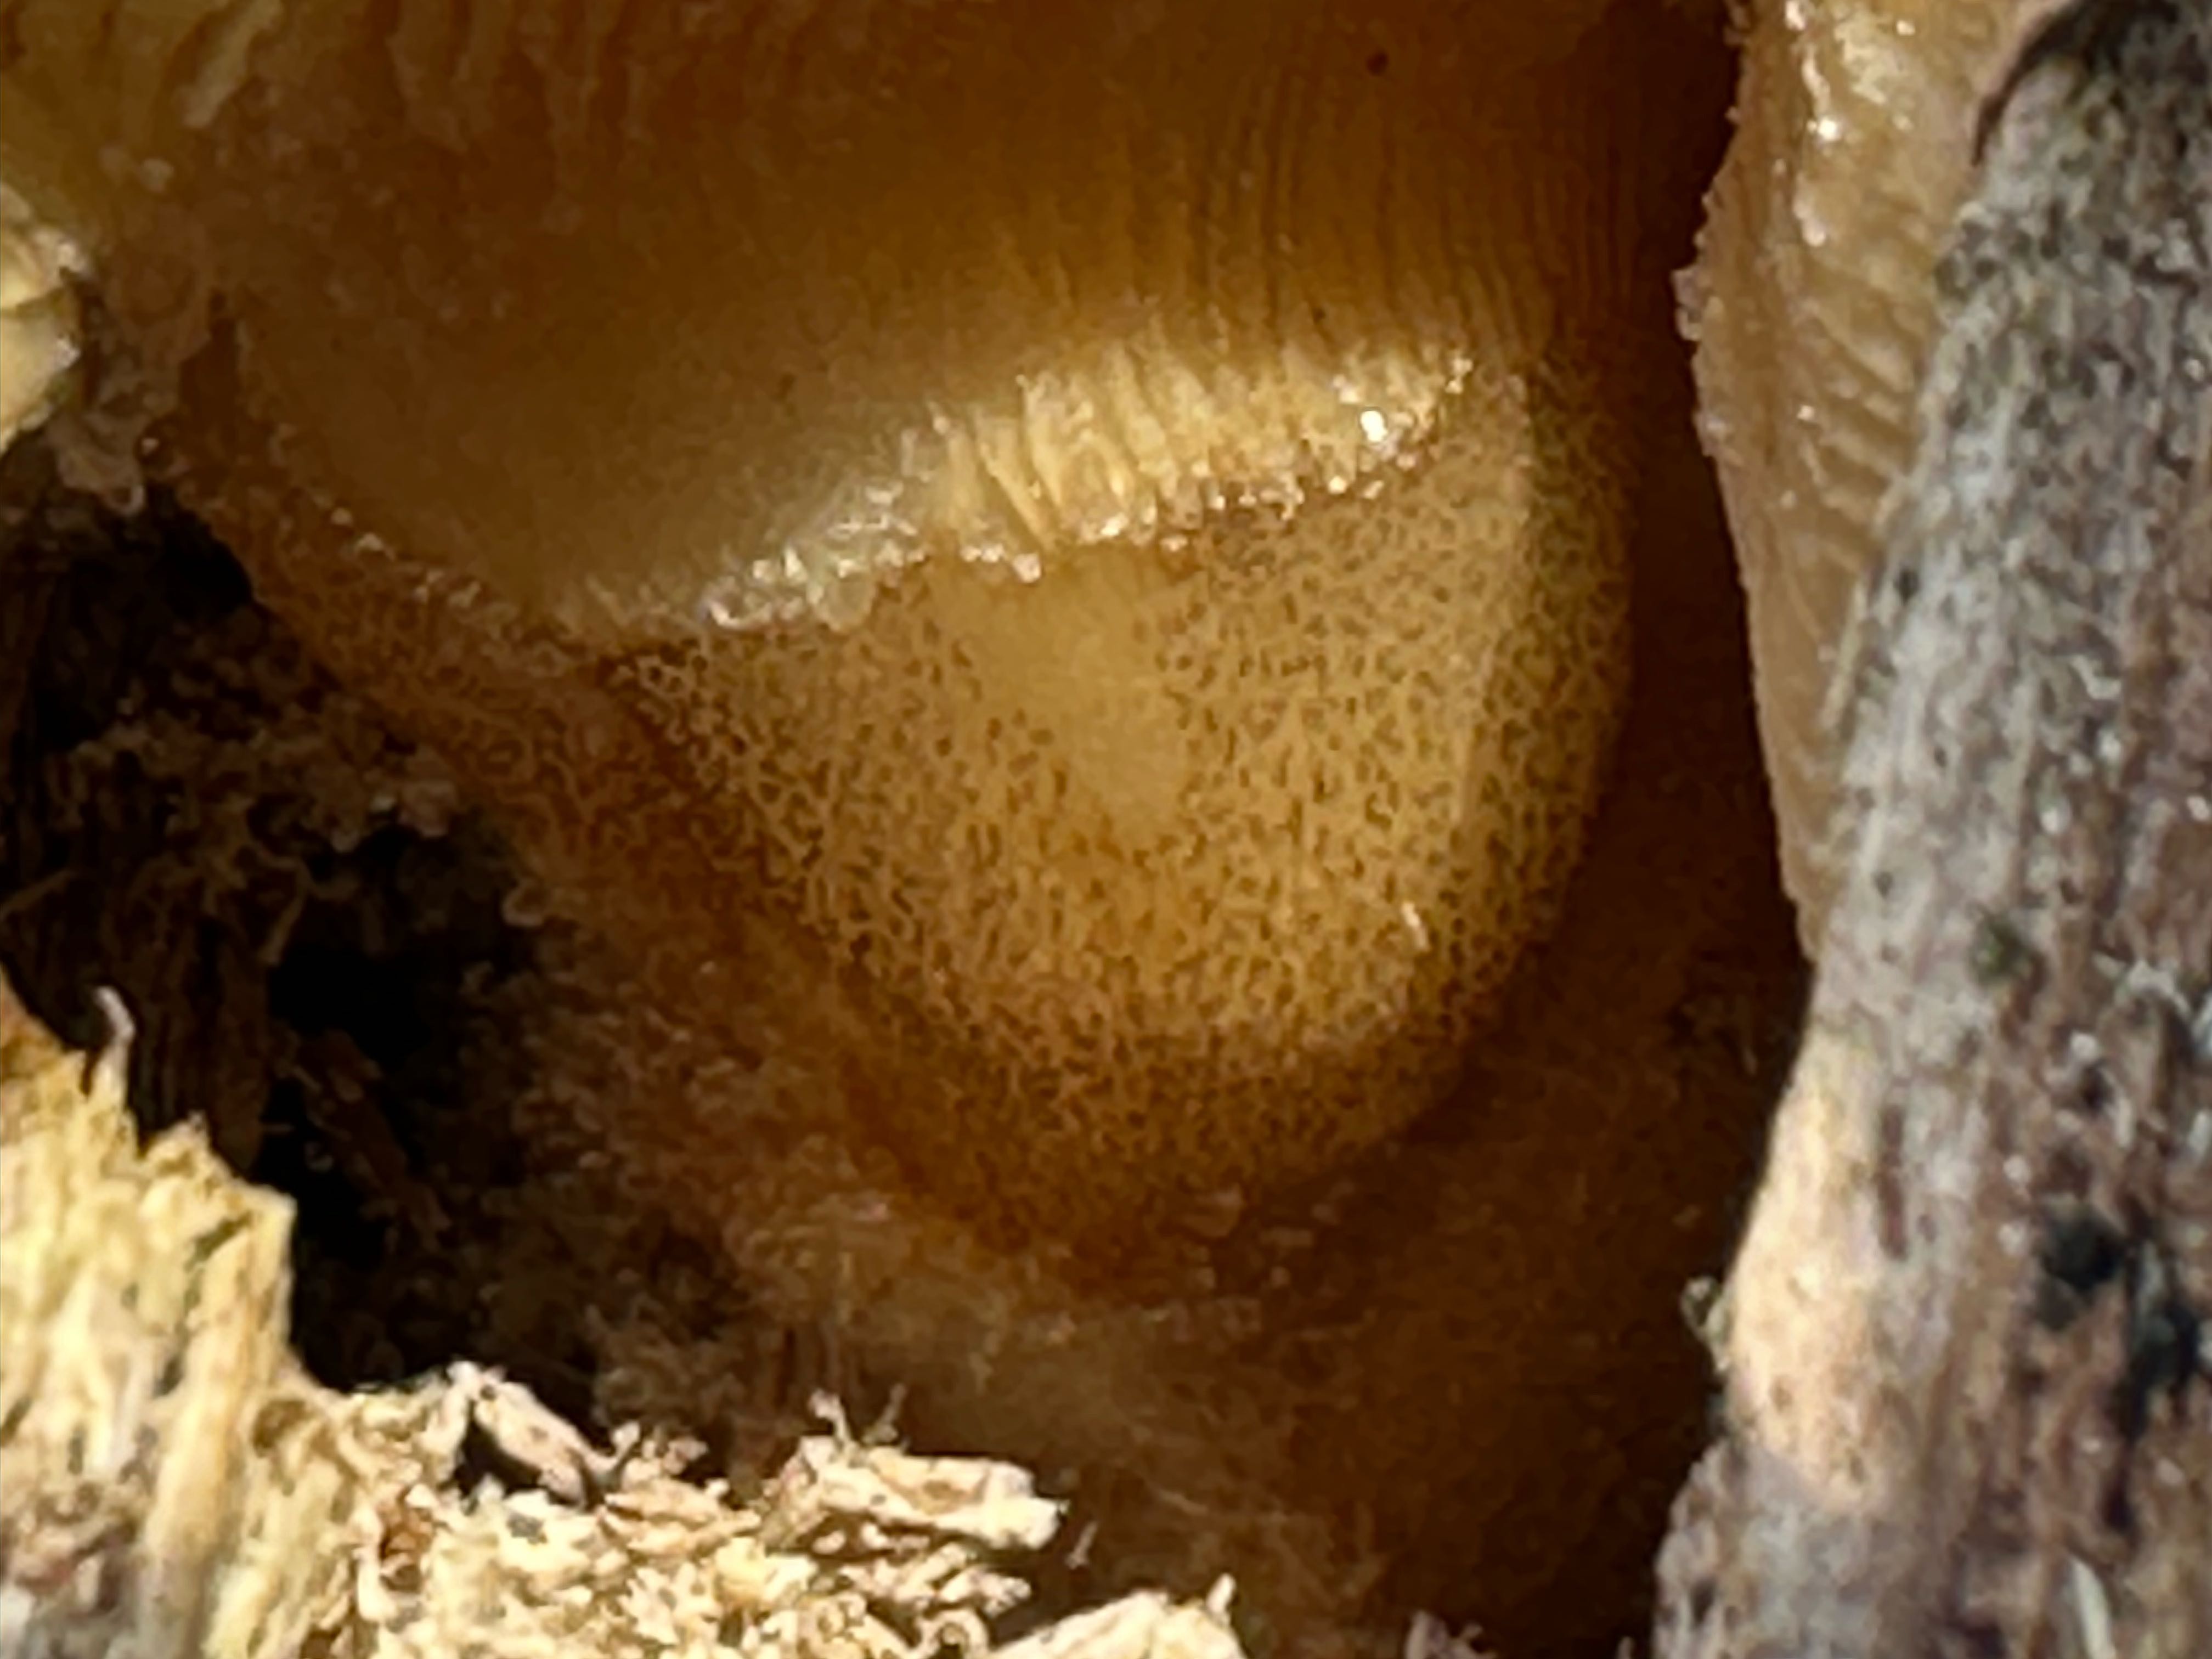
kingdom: Fungi
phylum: Basidiomycota
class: Agaricomycetes
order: Agaricales
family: Sarcomyxaceae
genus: Sarcomyxa
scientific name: Sarcomyxa serotina
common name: gummihat
